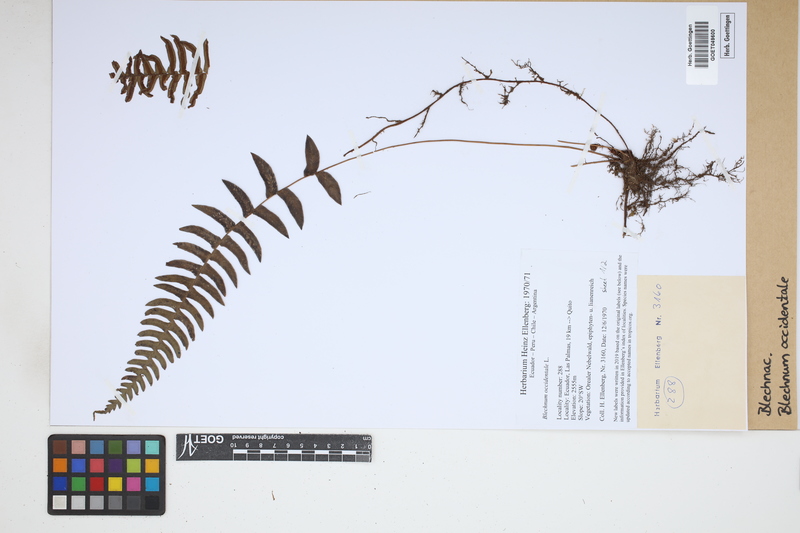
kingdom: Plantae
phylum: Tracheophyta
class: Polypodiopsida
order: Polypodiales
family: Blechnaceae
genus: Blechnum
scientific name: Blechnum occidentale
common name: Hammock fern
